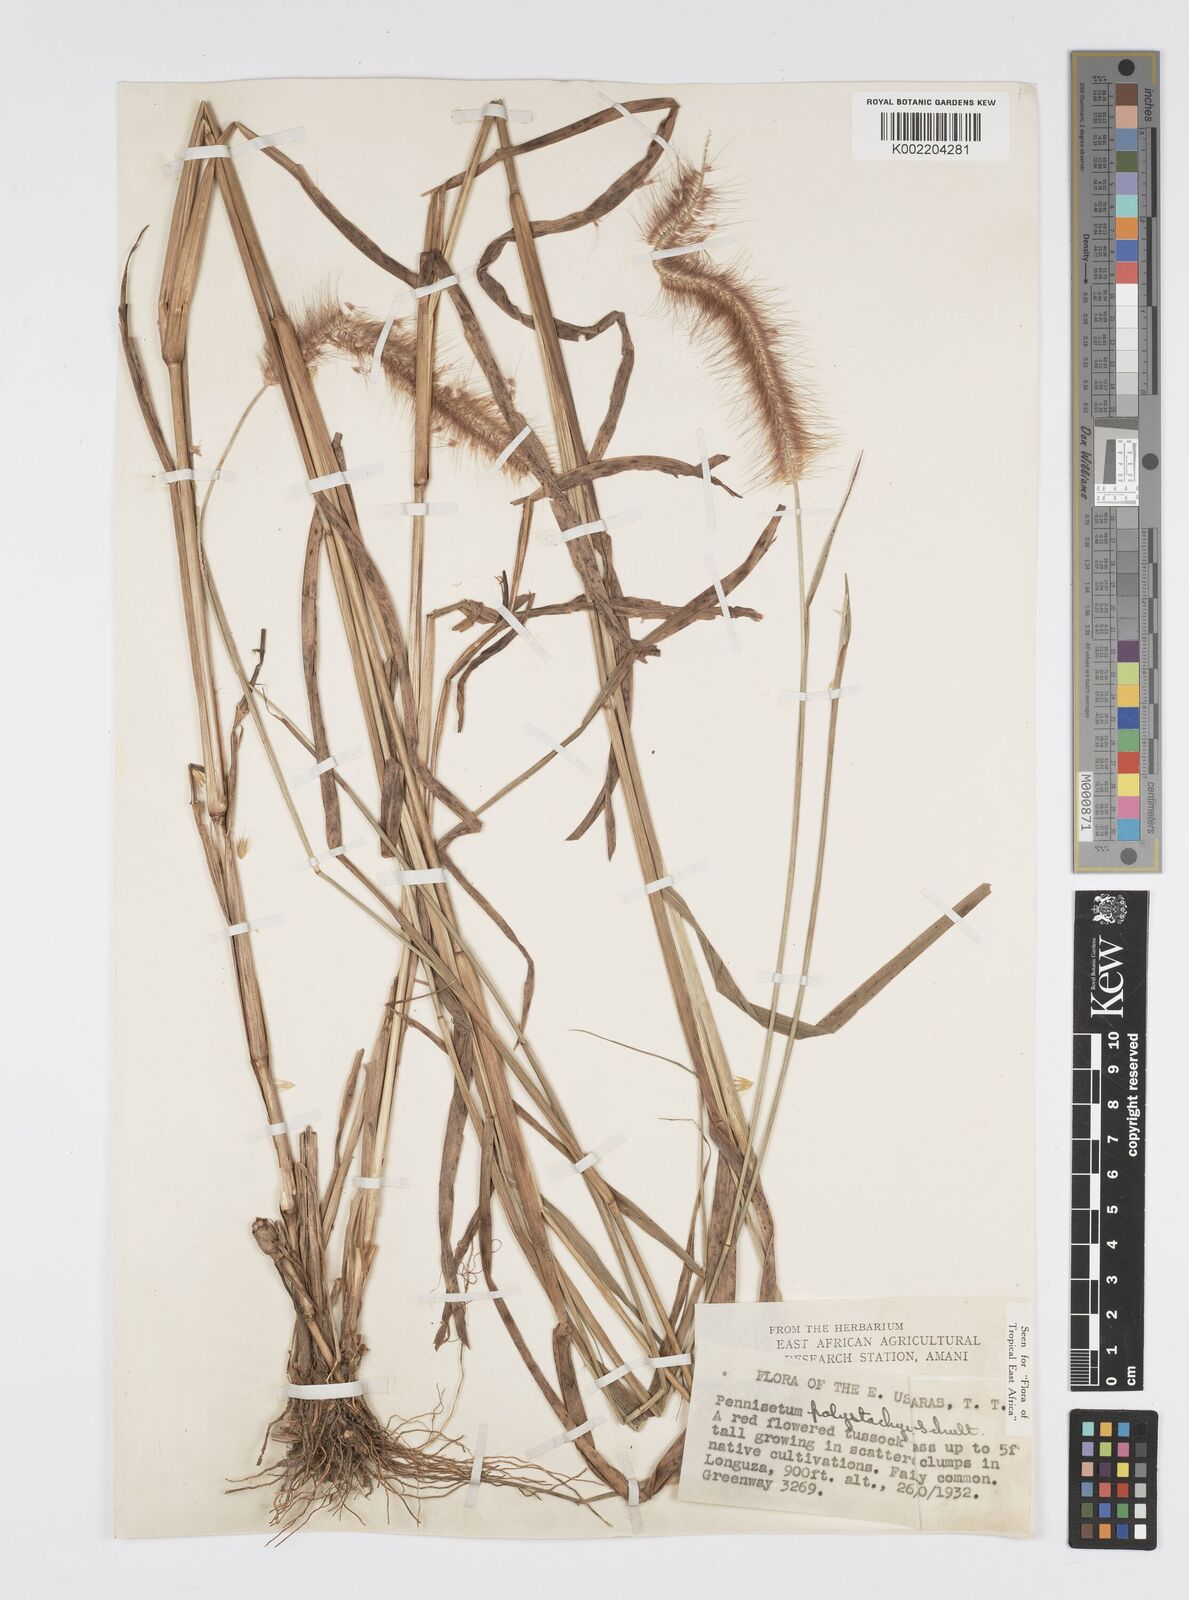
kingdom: Plantae
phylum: Tracheophyta
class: Liliopsida
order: Poales
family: Poaceae
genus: Setaria
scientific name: Setaria parviflora
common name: Knotroot bristle-grass
